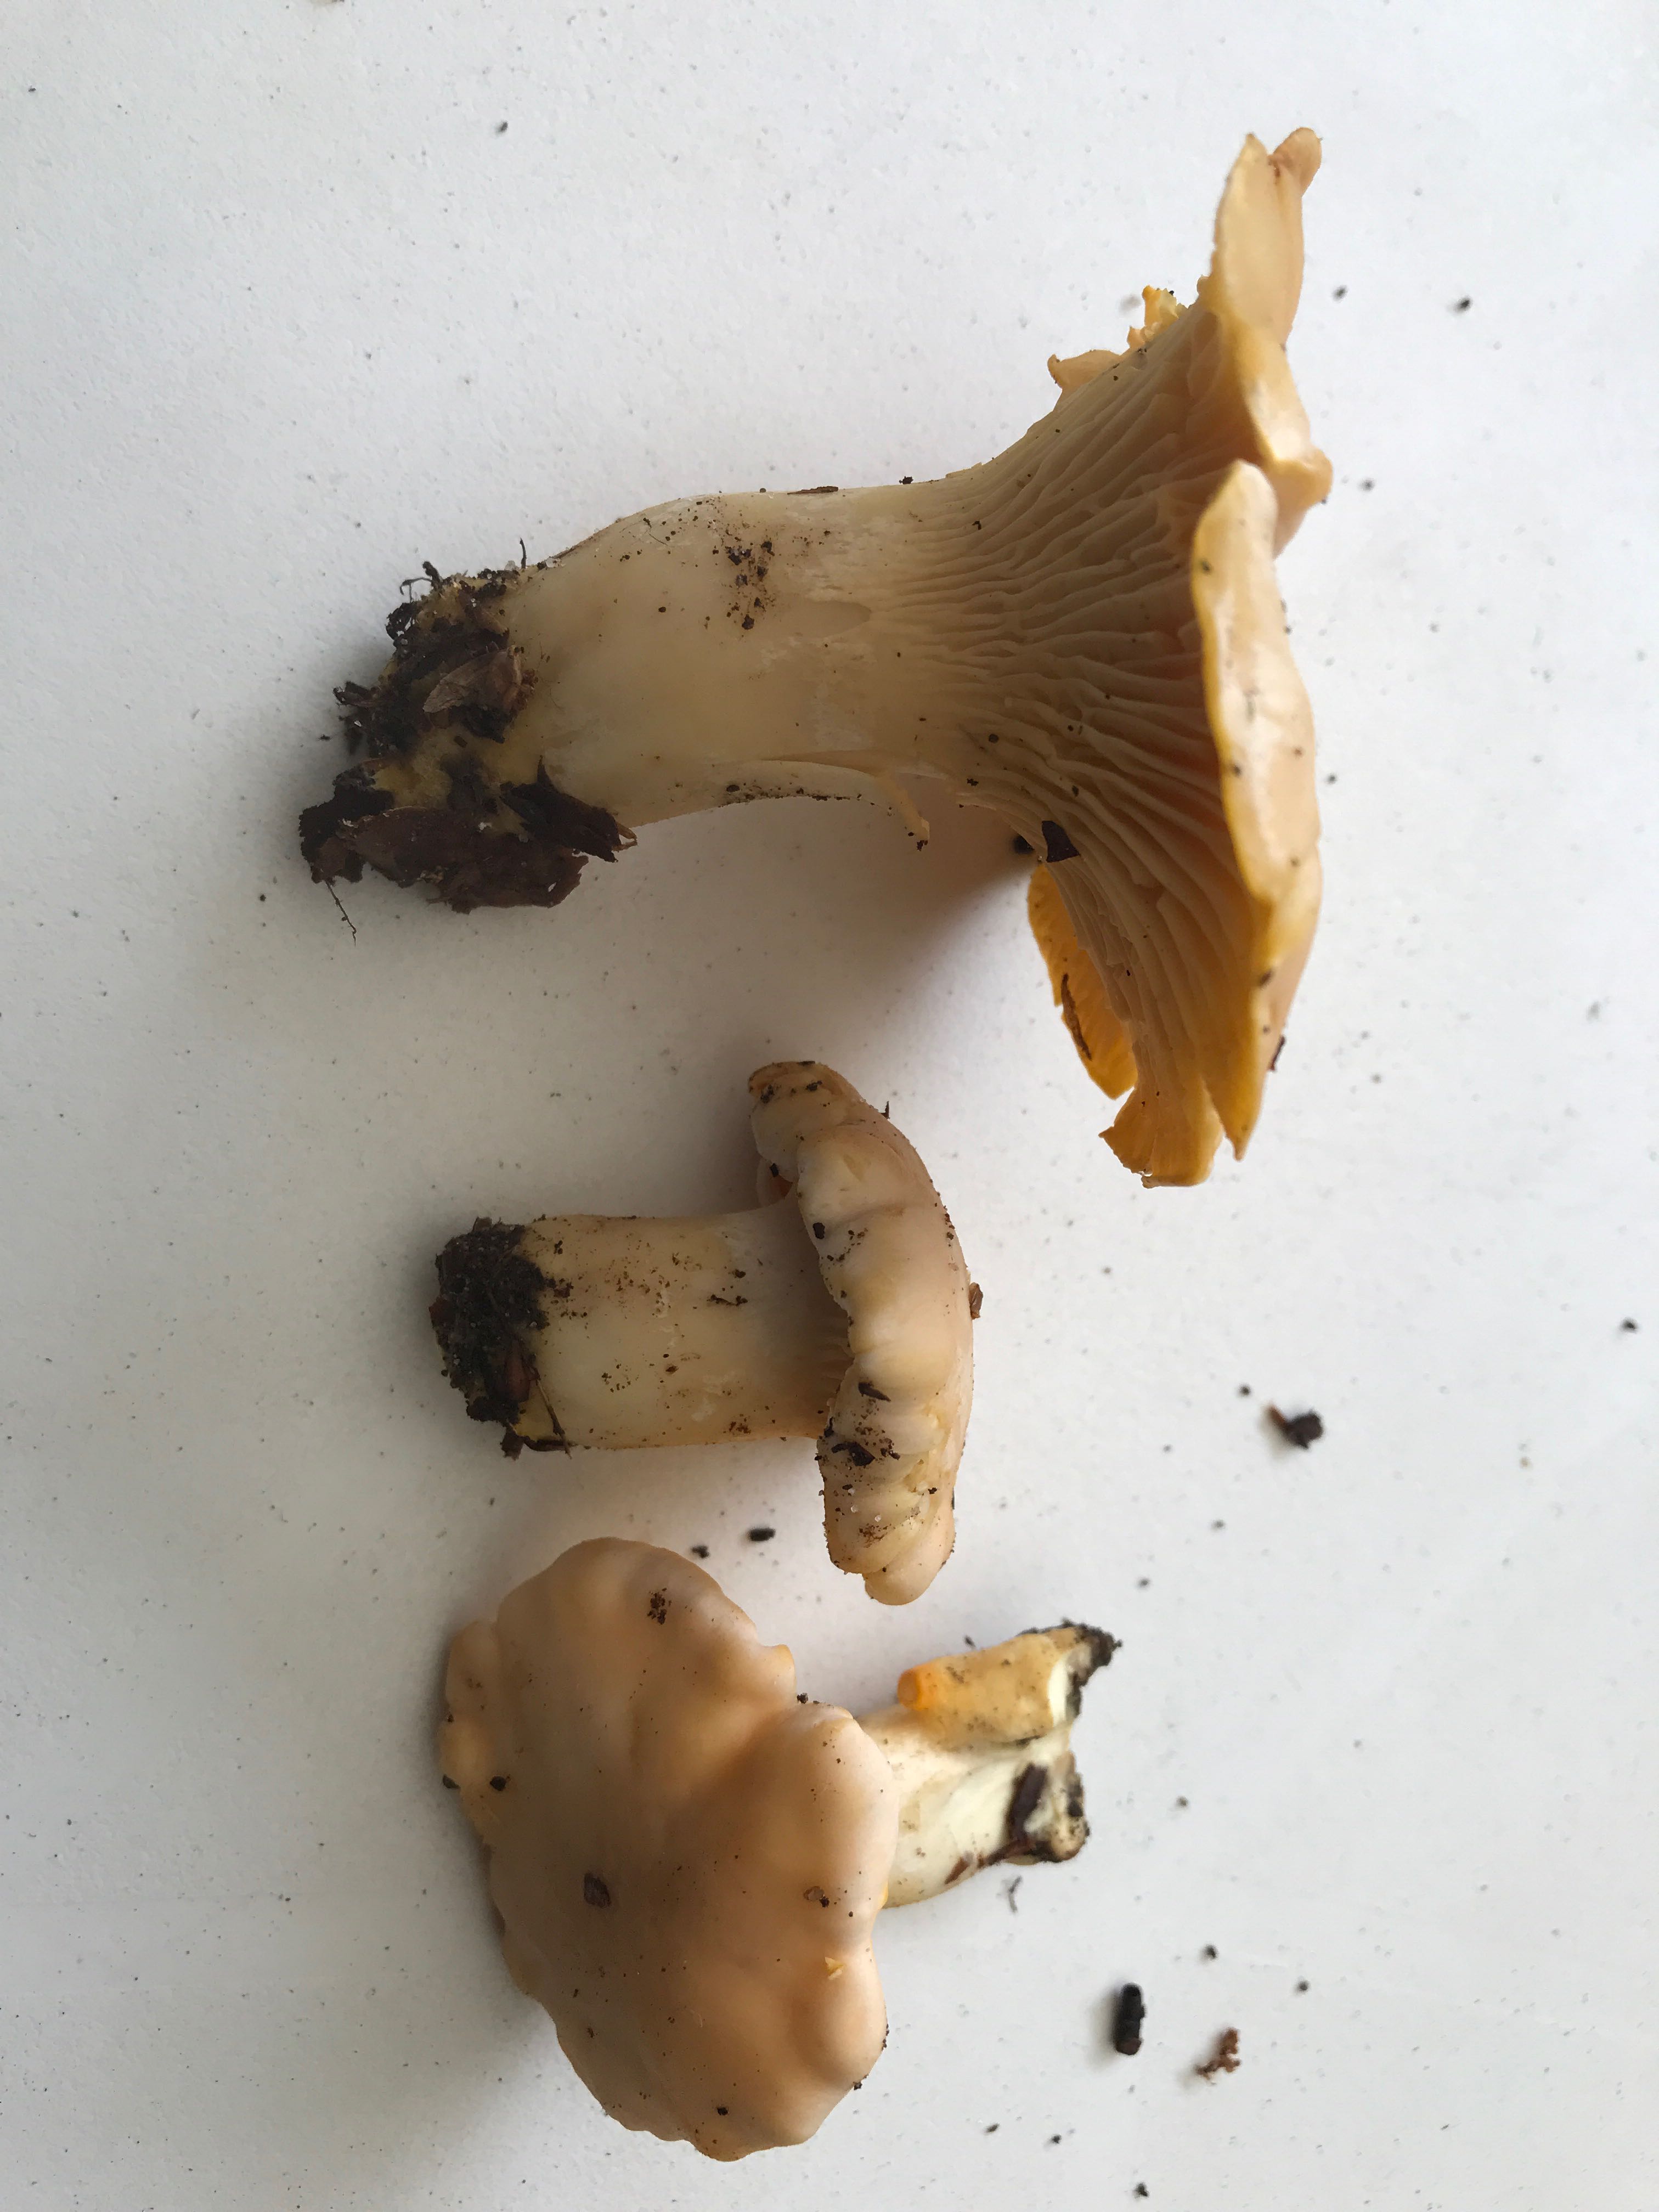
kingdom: Fungi
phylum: Basidiomycota
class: Agaricomycetes
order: Cantharellales
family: Hydnaceae
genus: Cantharellus
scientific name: Cantharellus pallens
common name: bleg kantarel
